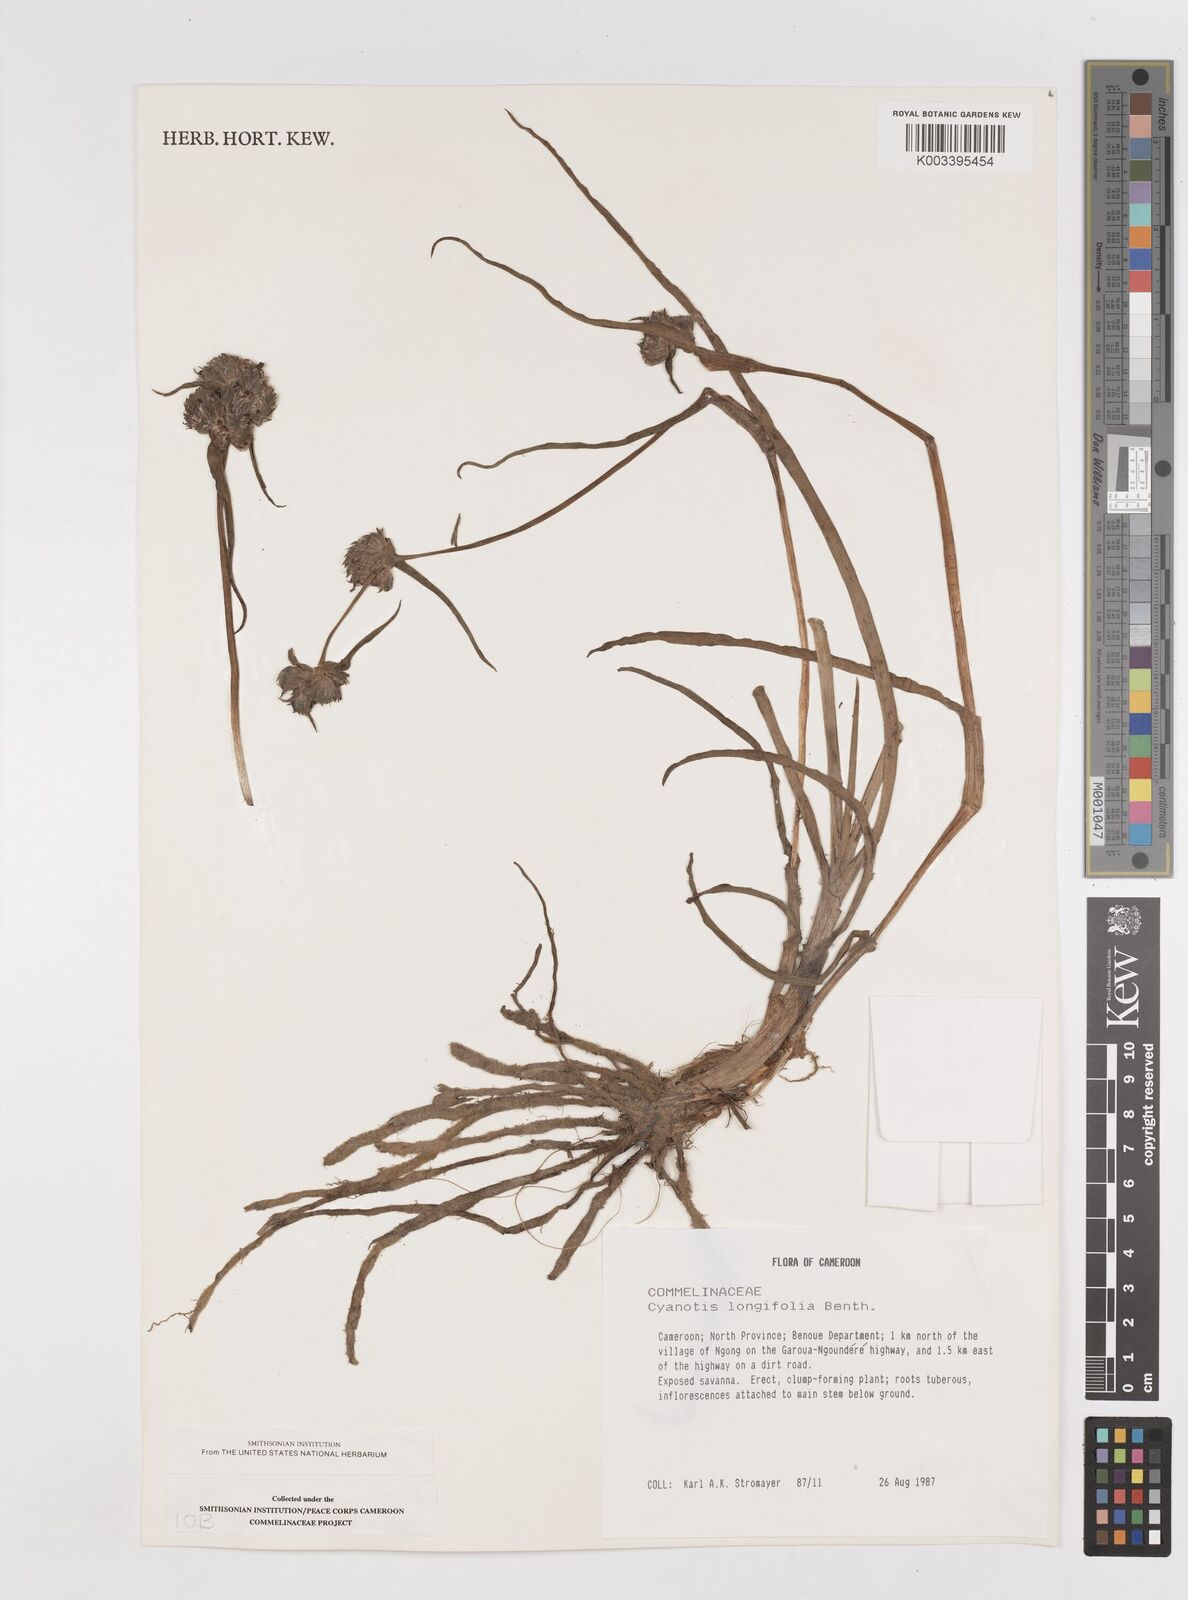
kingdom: Plantae
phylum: Tracheophyta
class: Liliopsida
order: Commelinales
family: Commelinaceae
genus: Cyanotis
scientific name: Cyanotis longifolia
